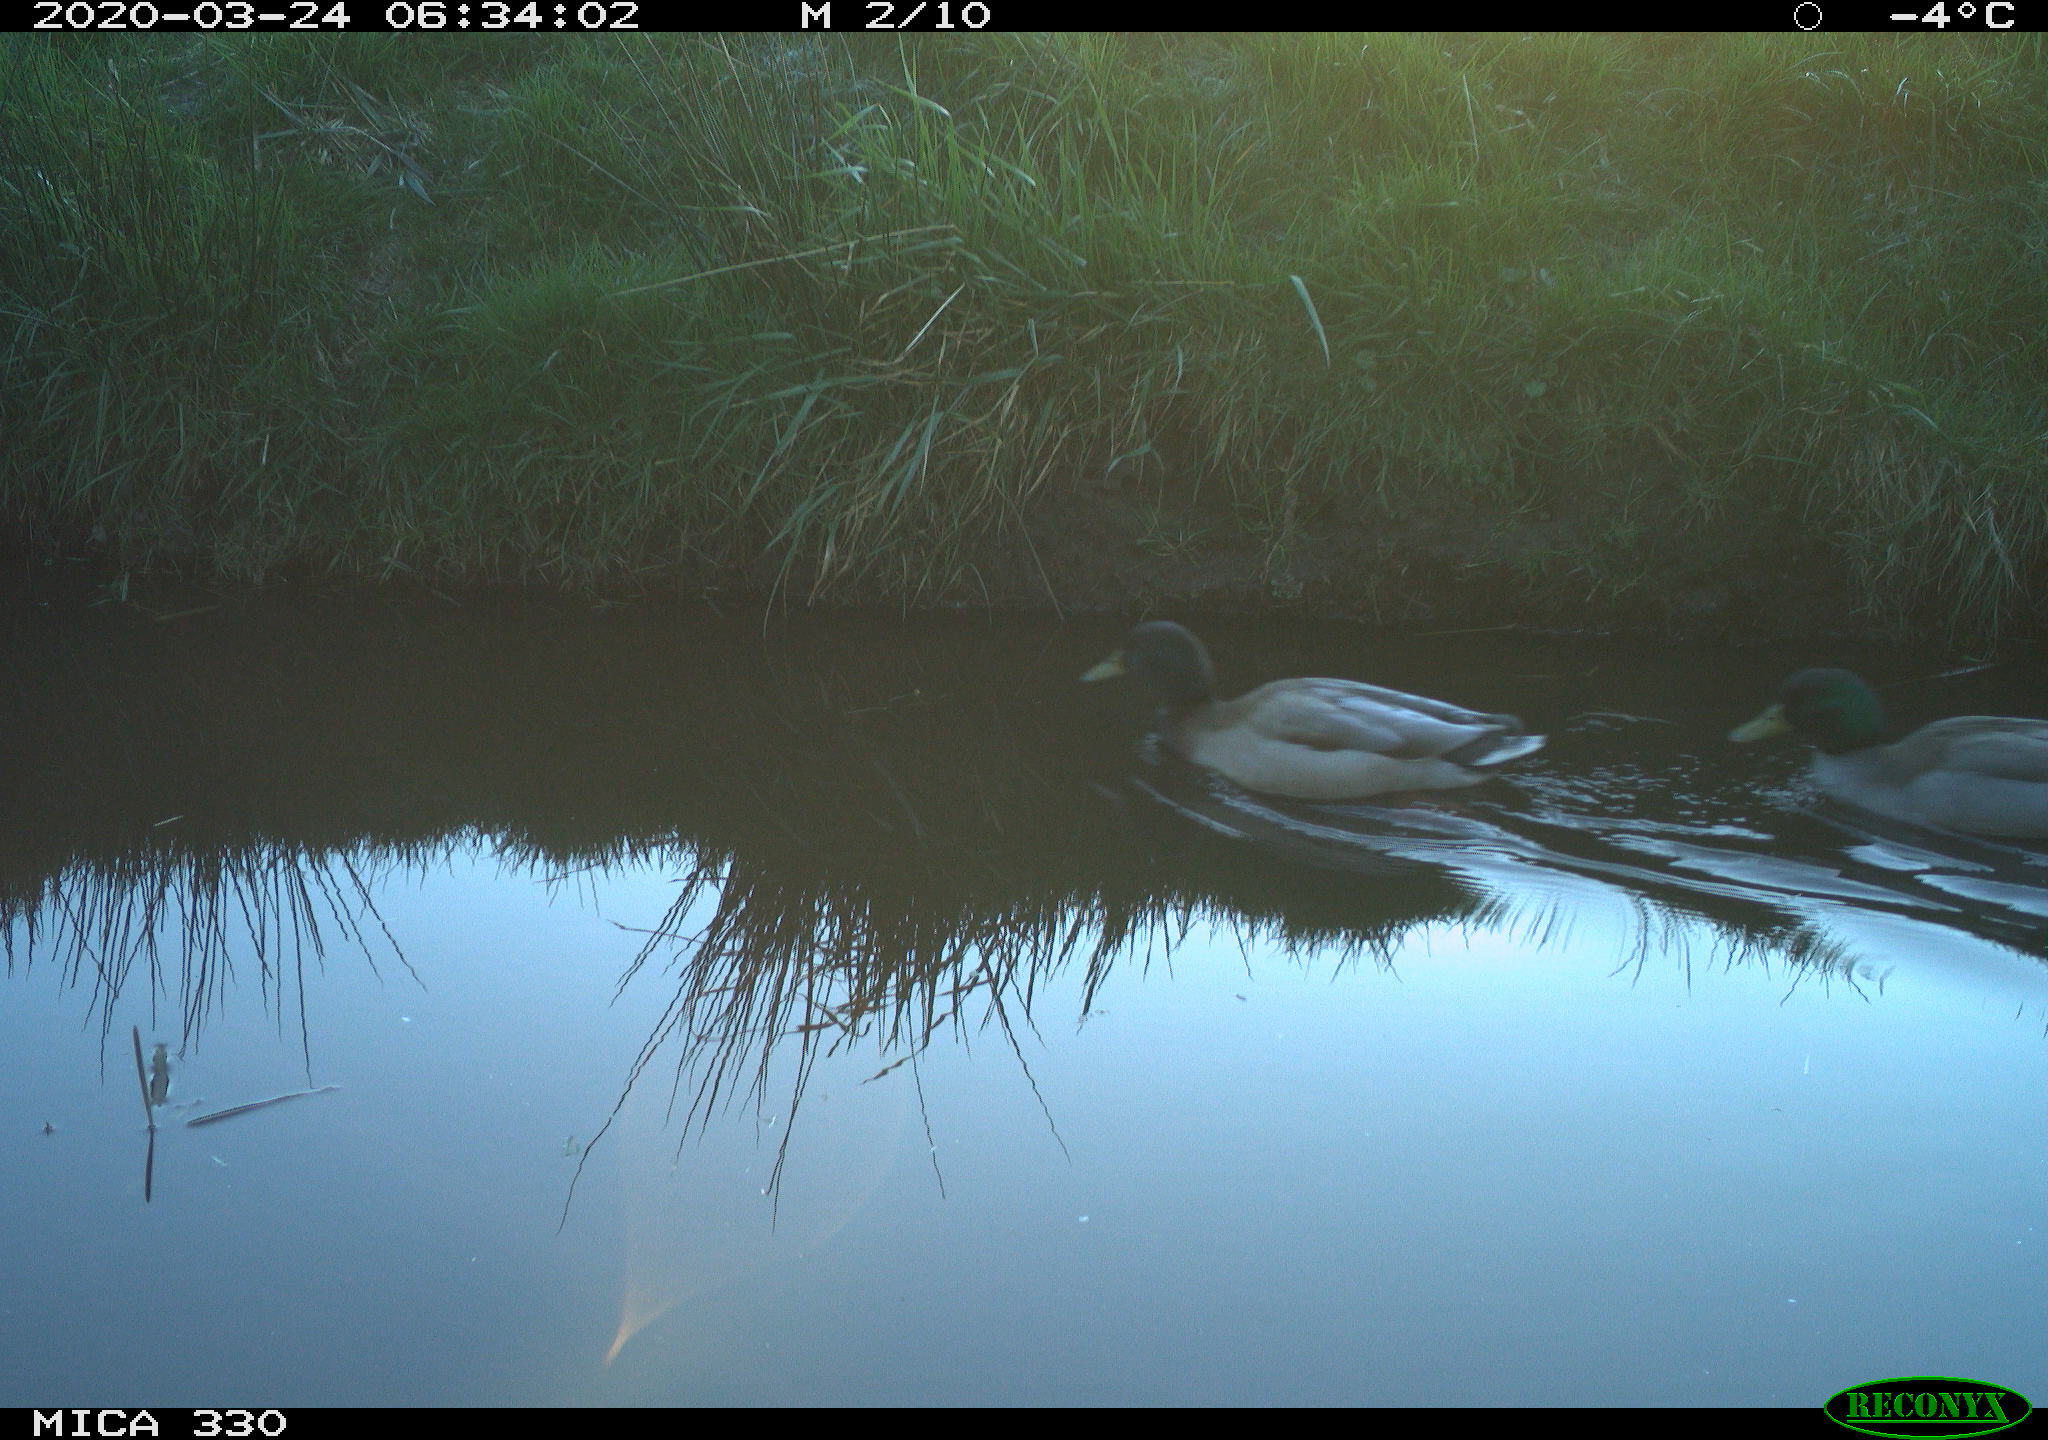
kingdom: Animalia
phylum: Chordata
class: Aves
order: Anseriformes
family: Anatidae
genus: Anas
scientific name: Anas platyrhynchos
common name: Mallard
